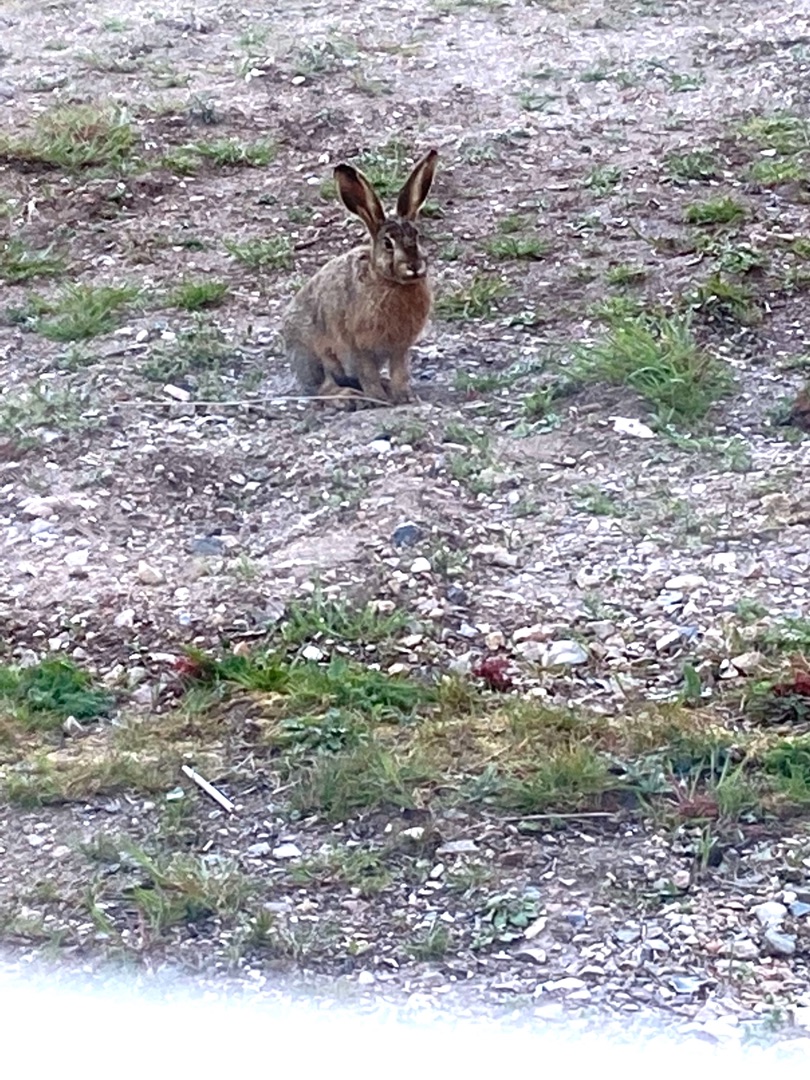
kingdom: Animalia
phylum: Chordata
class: Mammalia
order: Lagomorpha
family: Leporidae
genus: Lepus
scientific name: Lepus europaeus
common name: Hare
